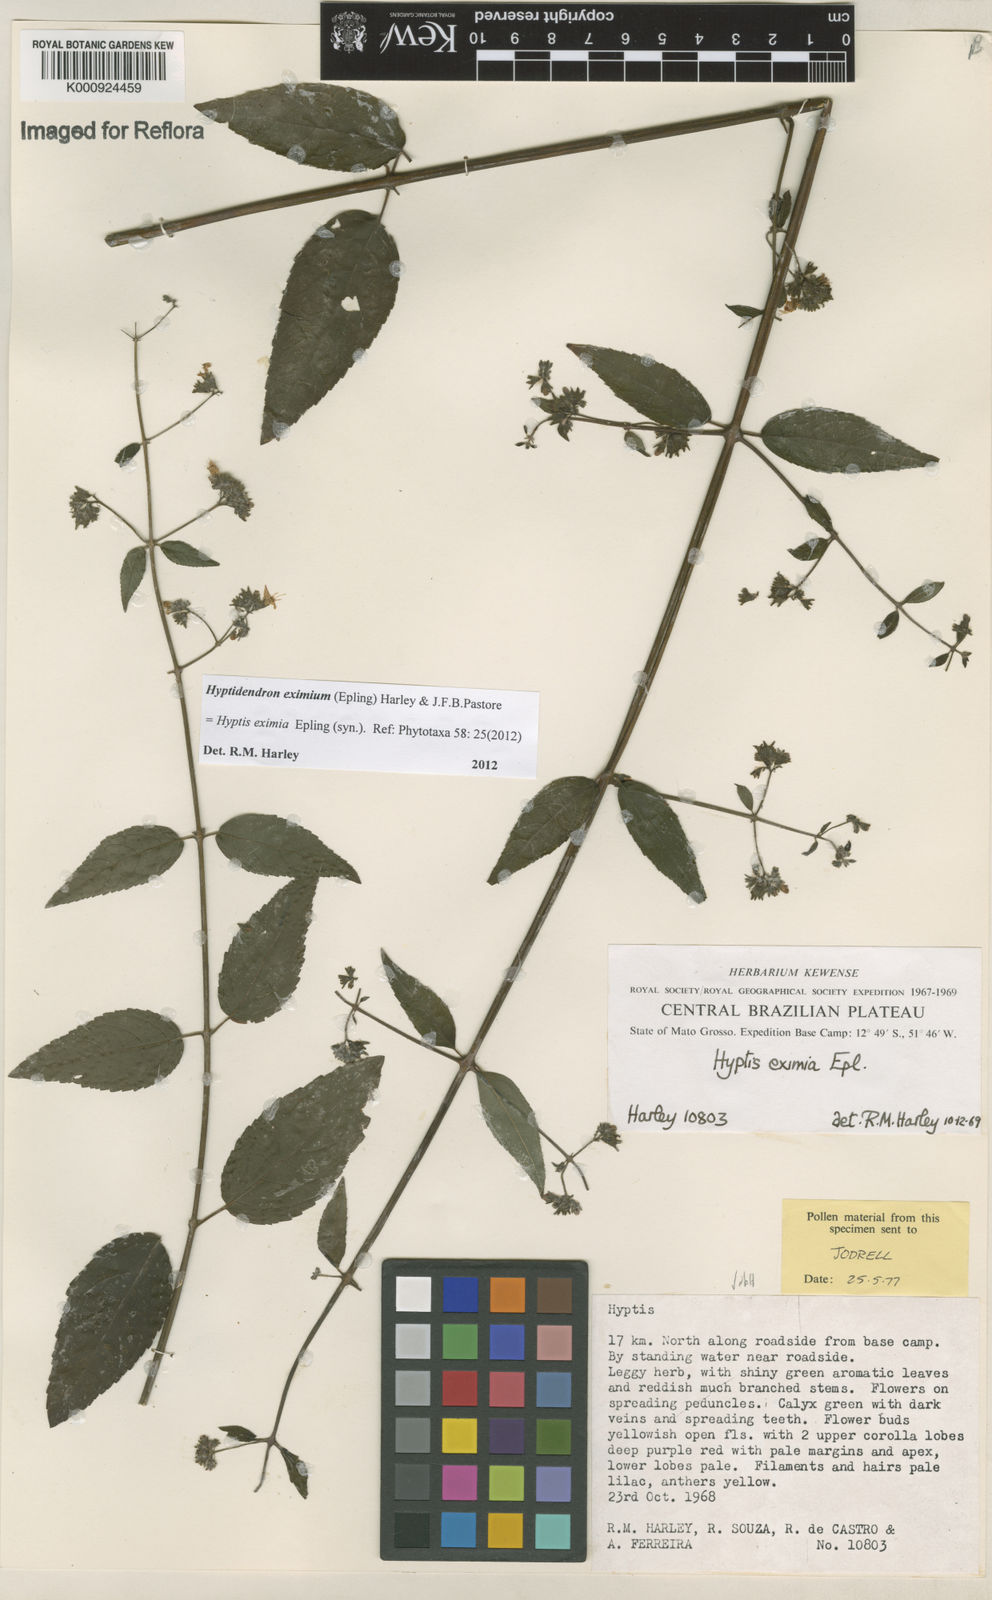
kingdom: Plantae
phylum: Tracheophyta
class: Magnoliopsida
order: Lamiales
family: Lamiaceae
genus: Hyptidendron
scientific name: Hyptidendron eximium
